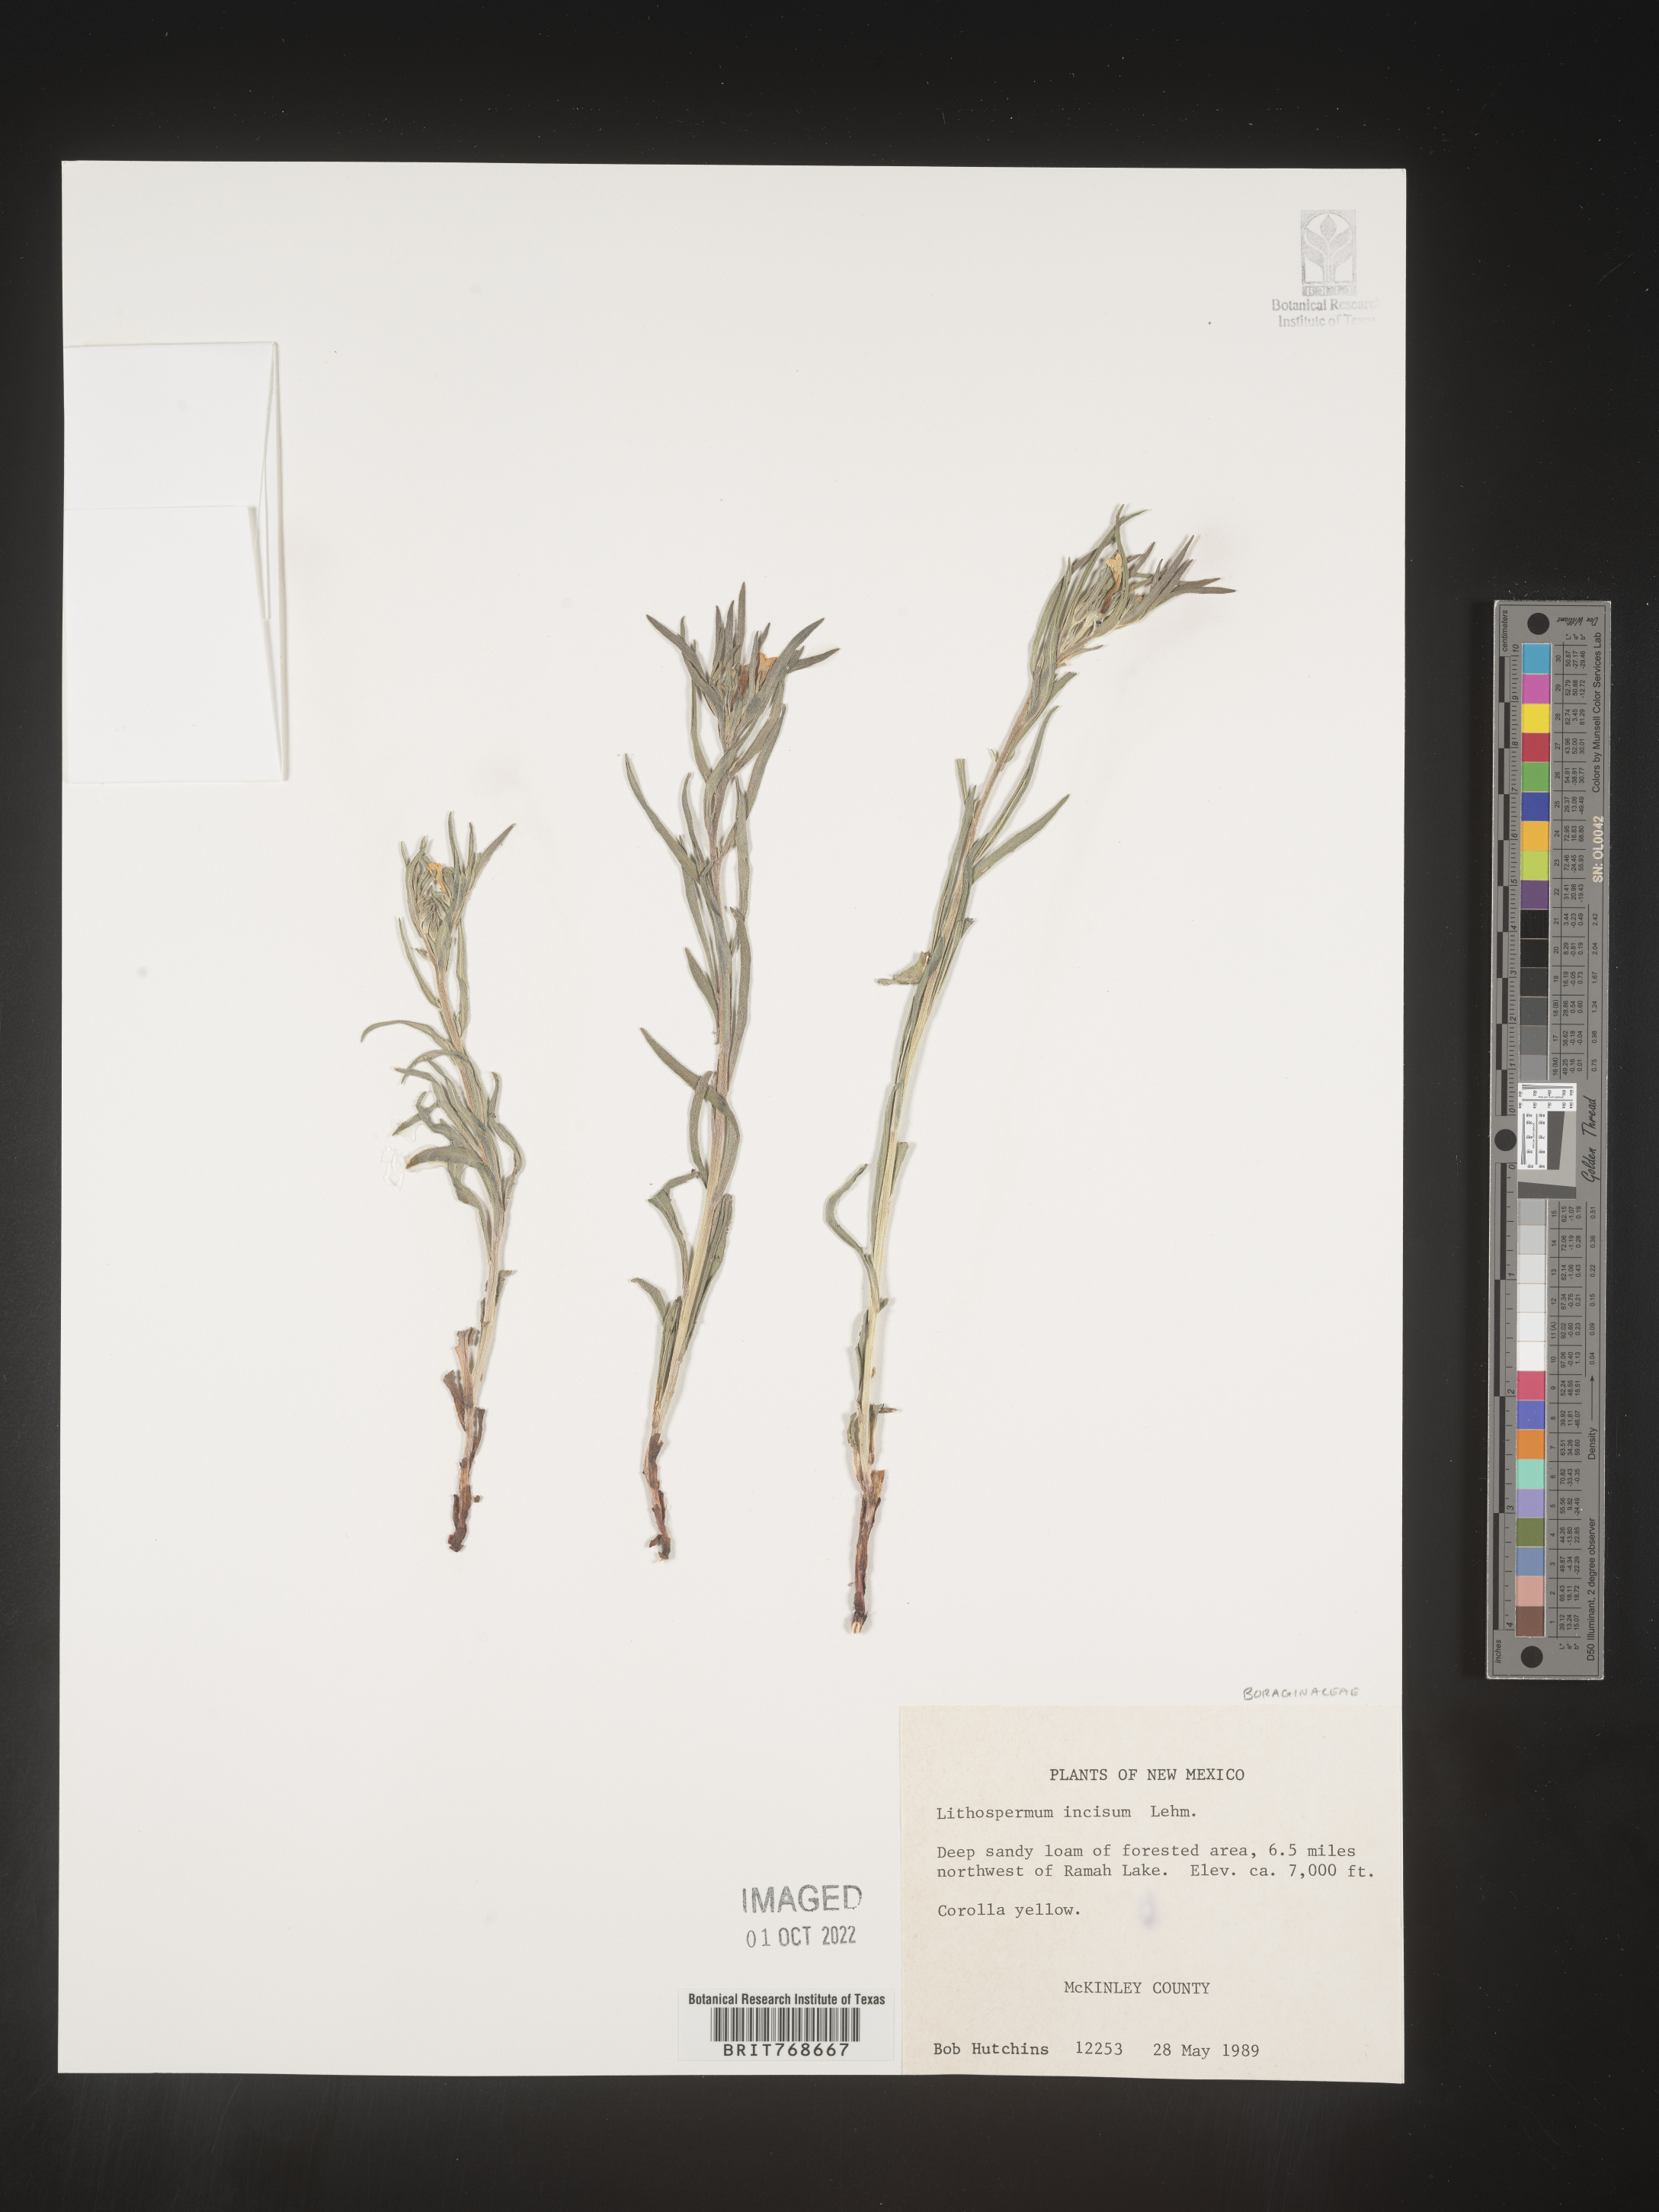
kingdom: Plantae
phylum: Tracheophyta
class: Magnoliopsida
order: Boraginales
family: Boraginaceae
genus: Lithospermum
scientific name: Lithospermum incisum
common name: Fringed gromwell
